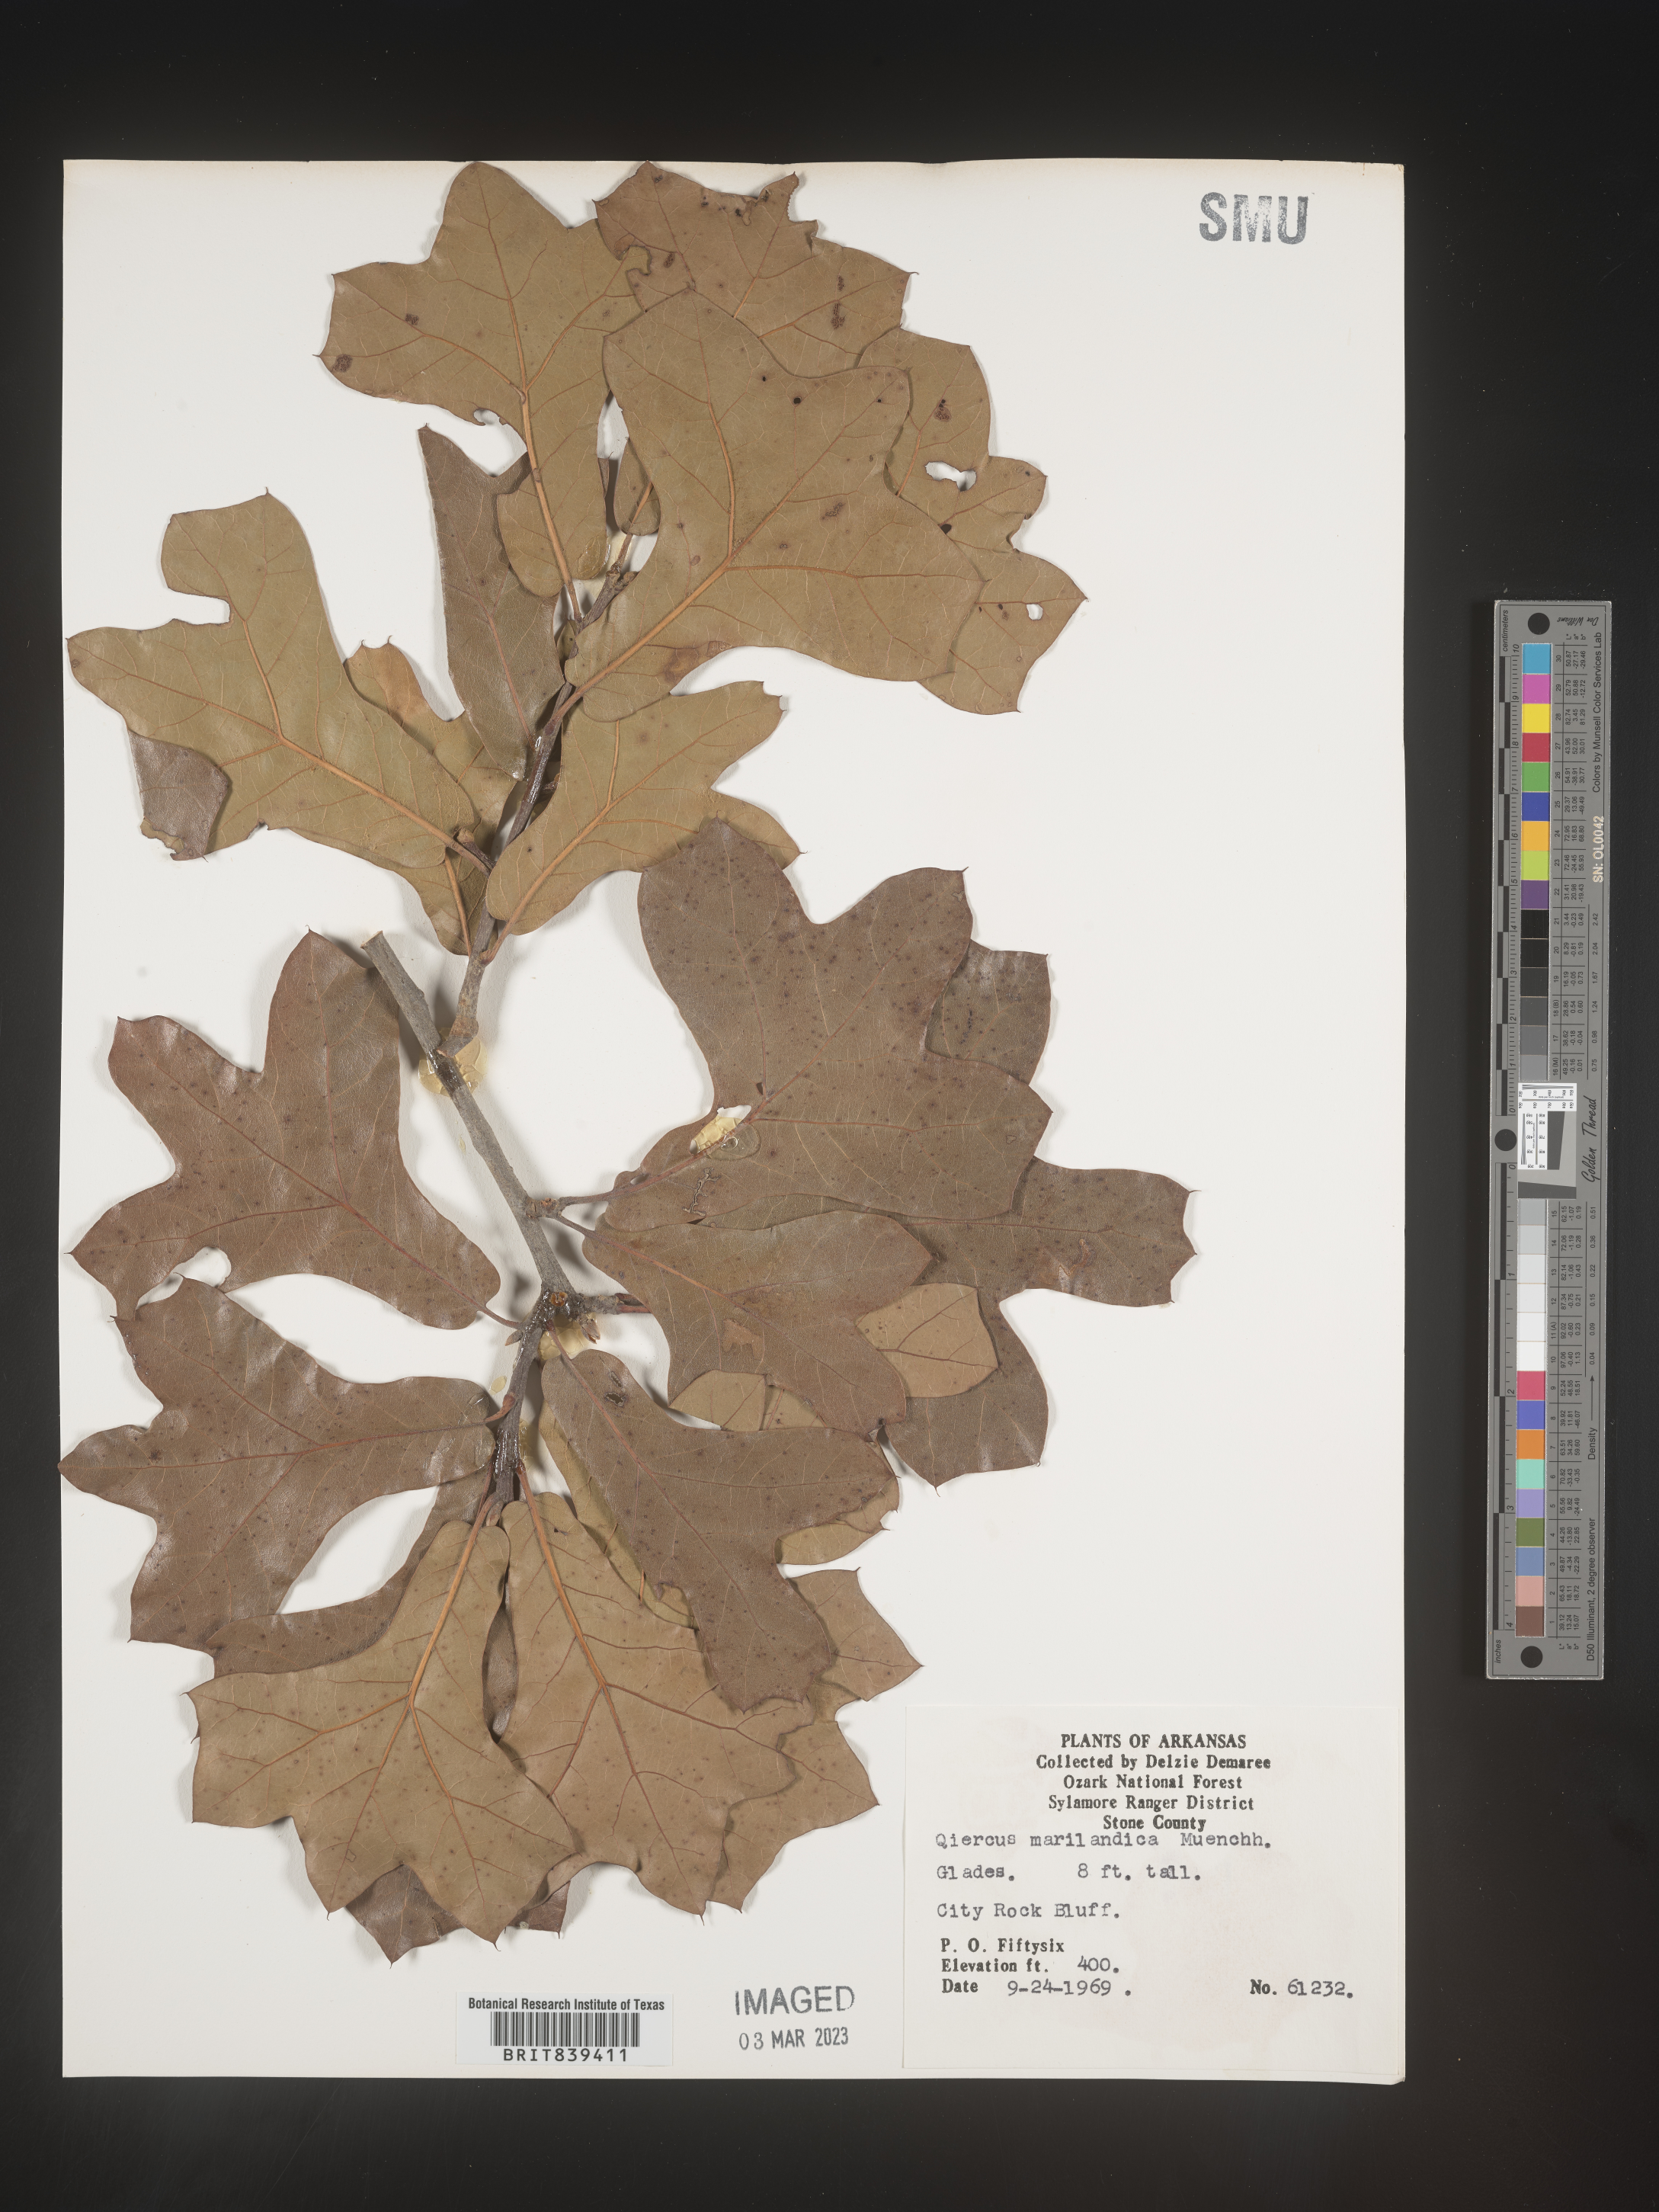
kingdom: Plantae
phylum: Tracheophyta
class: Magnoliopsida
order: Fagales
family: Fagaceae
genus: Quercus
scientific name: Quercus marilandica
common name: Blackjack oak
